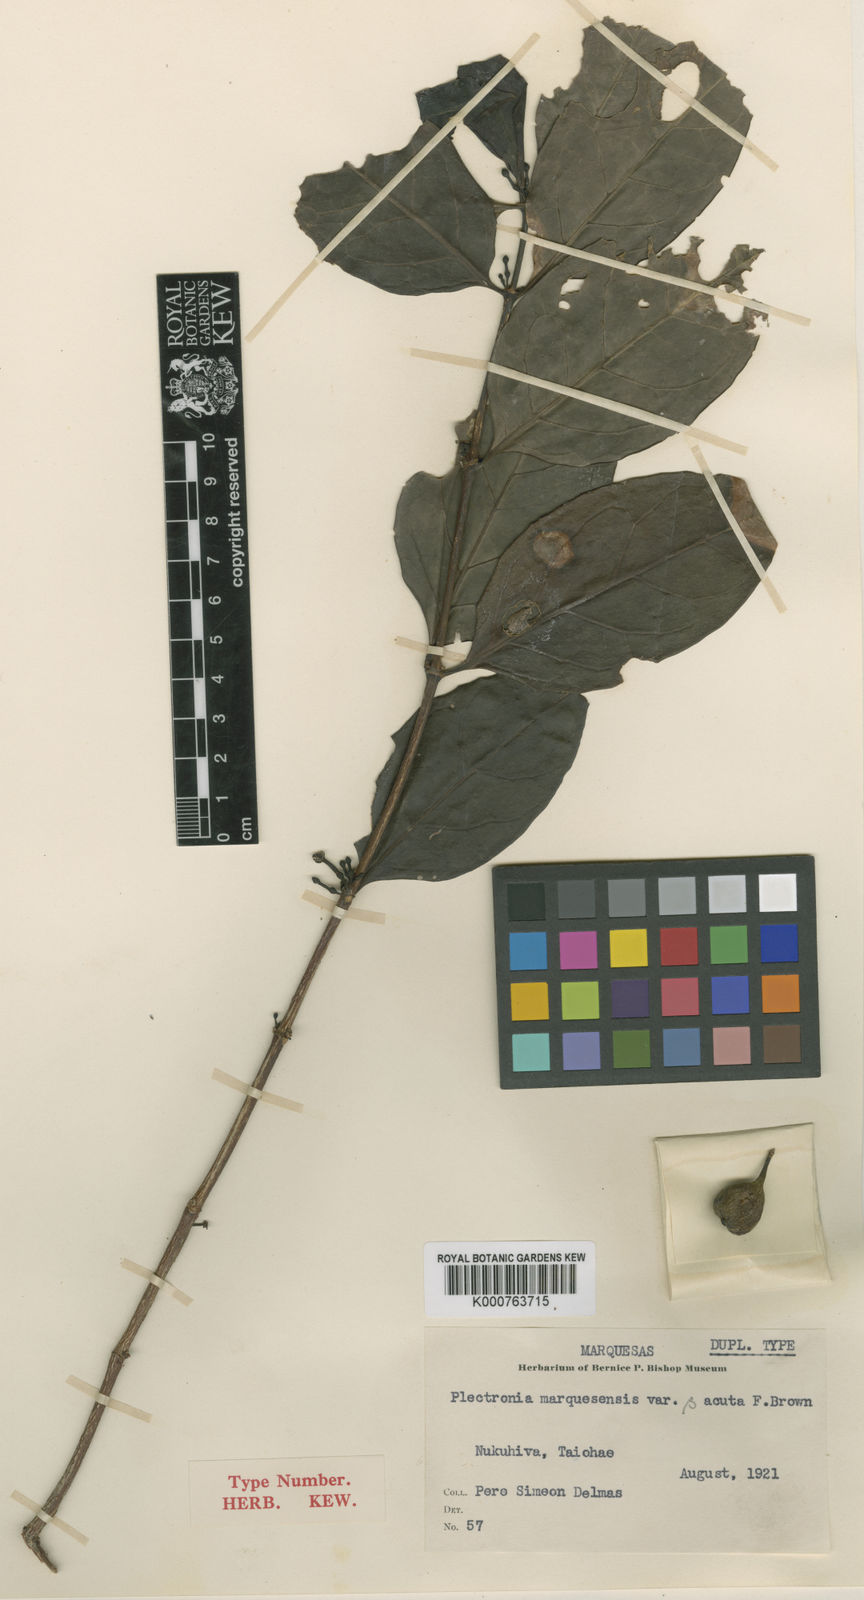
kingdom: Plantae
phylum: Tracheophyta
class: Magnoliopsida
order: Myrtales
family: Lythraceae
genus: Plectronia
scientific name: Plectronia
